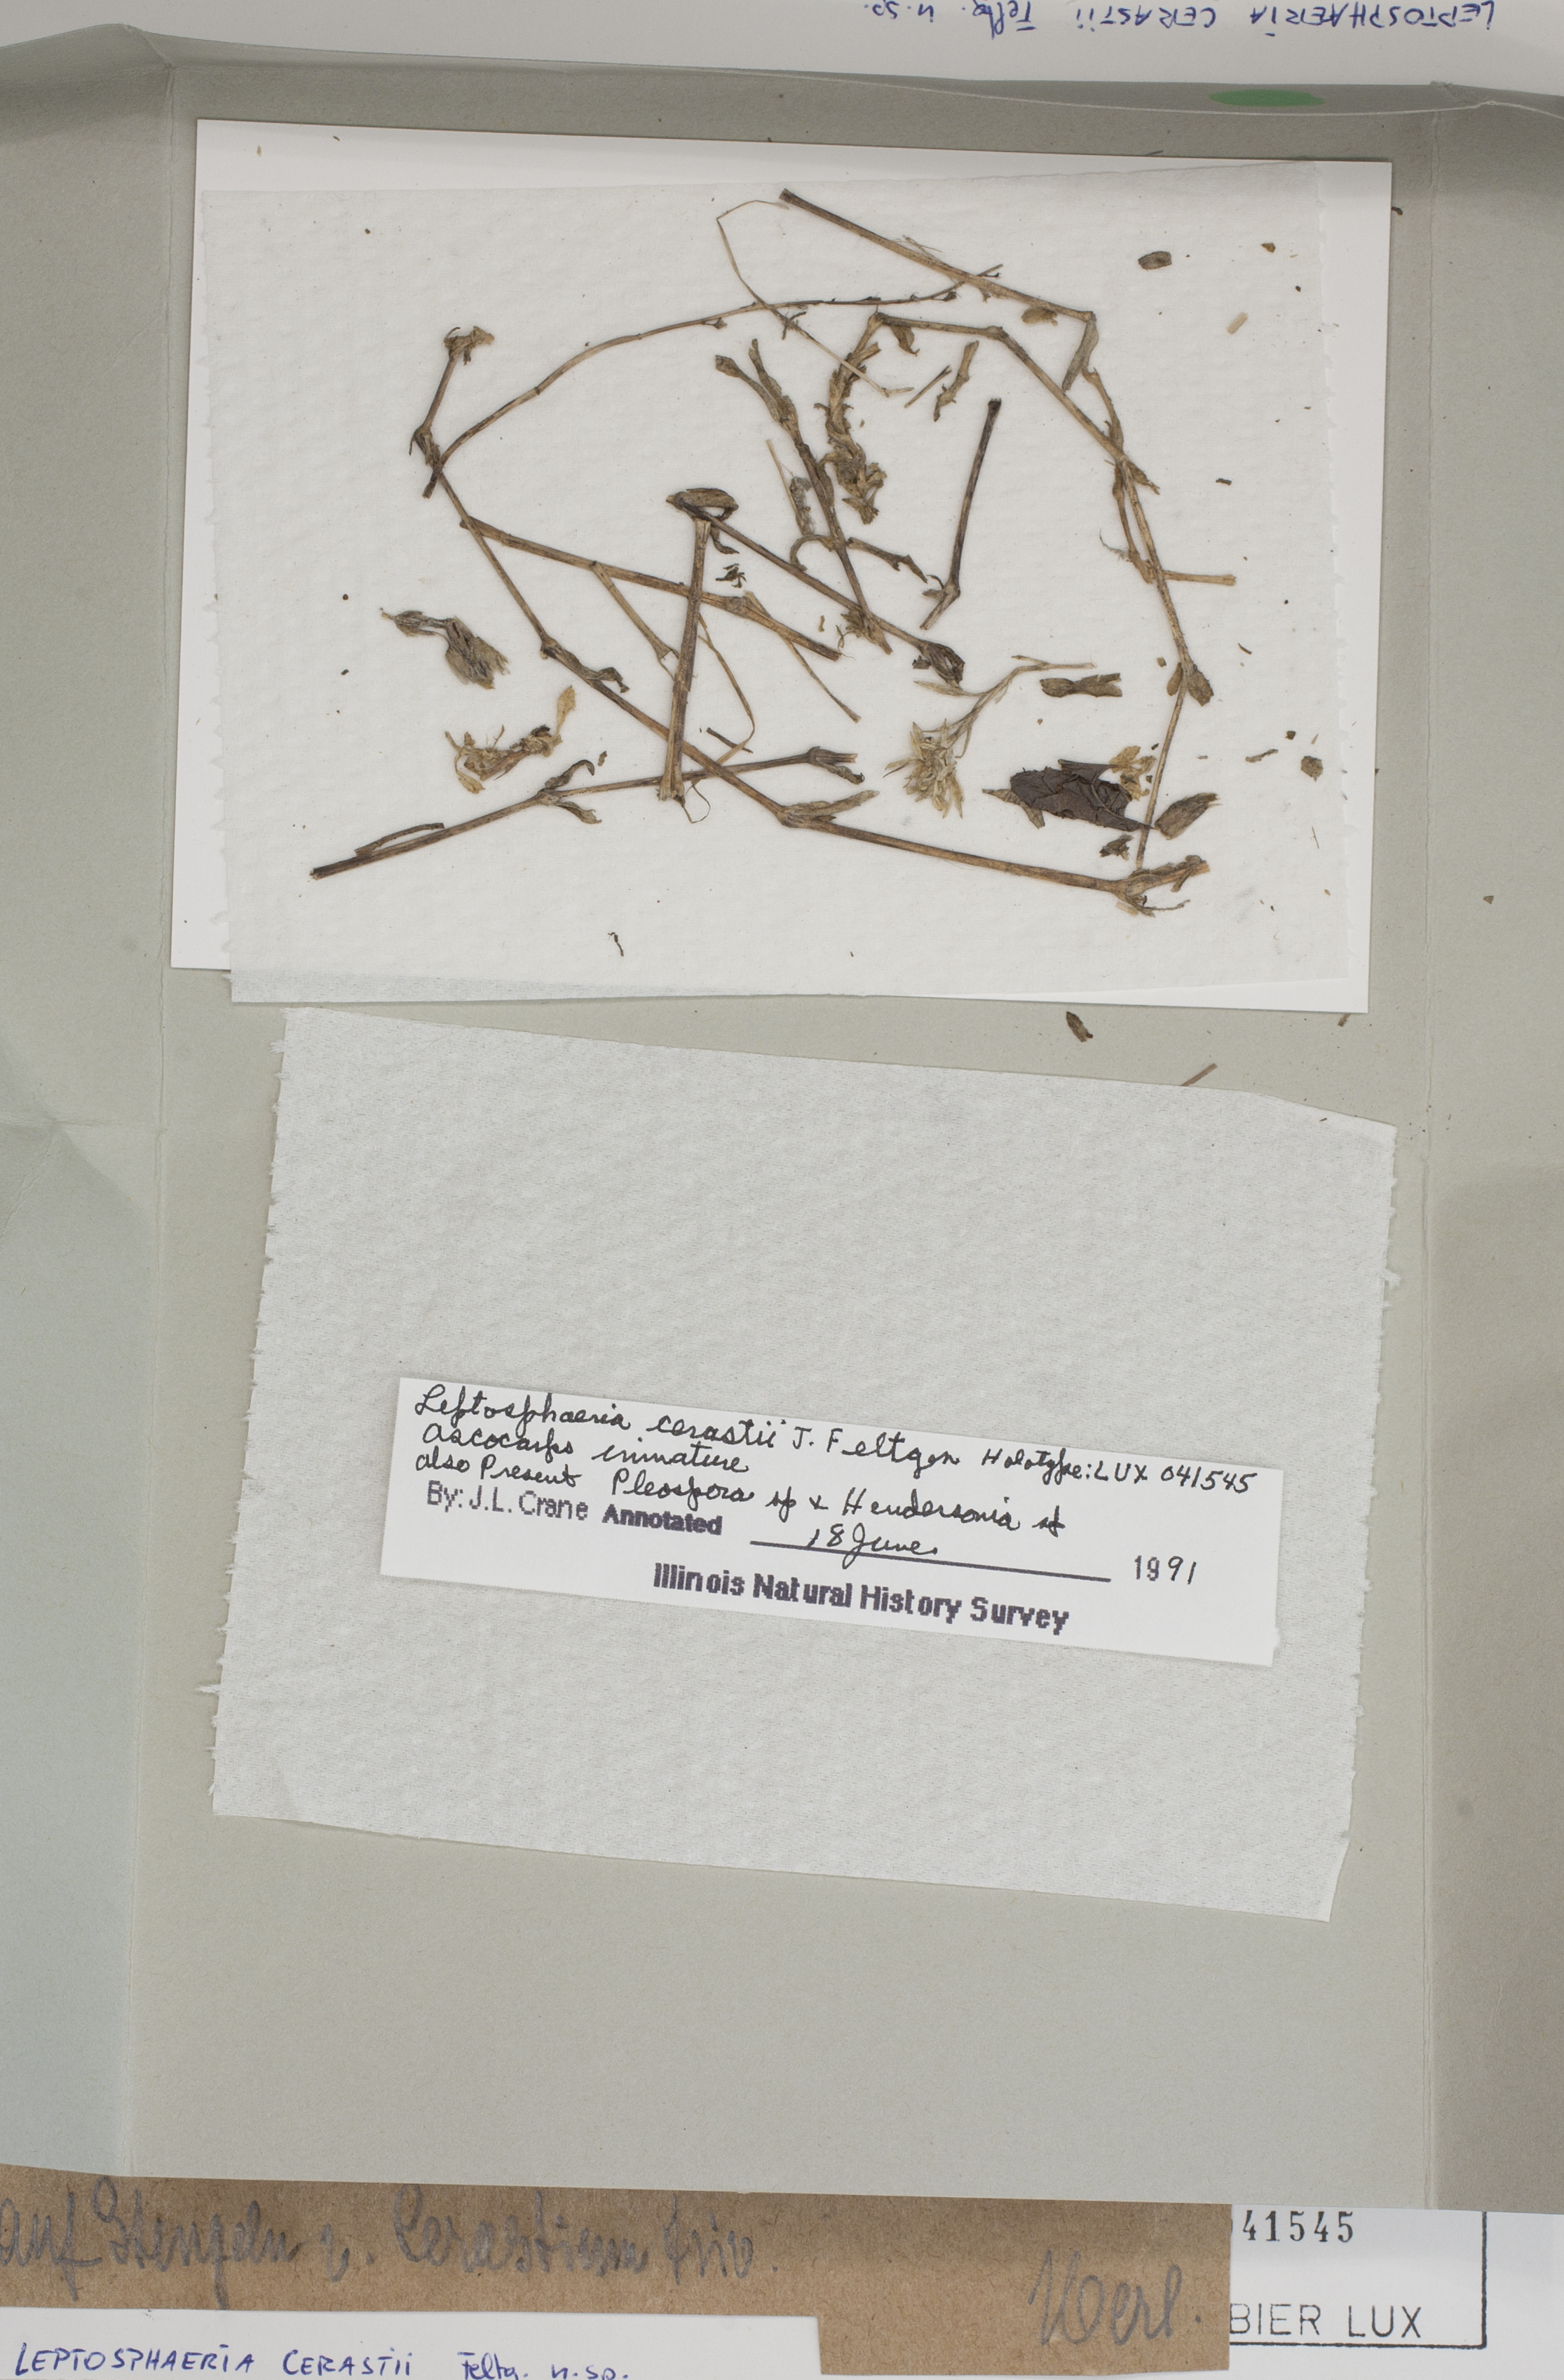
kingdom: Fungi
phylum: Ascomycota
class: Dothideomycetes
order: Pleosporales
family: Leptosphaeriaceae
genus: Leptosphaeria
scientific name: Leptosphaeria cerastii
